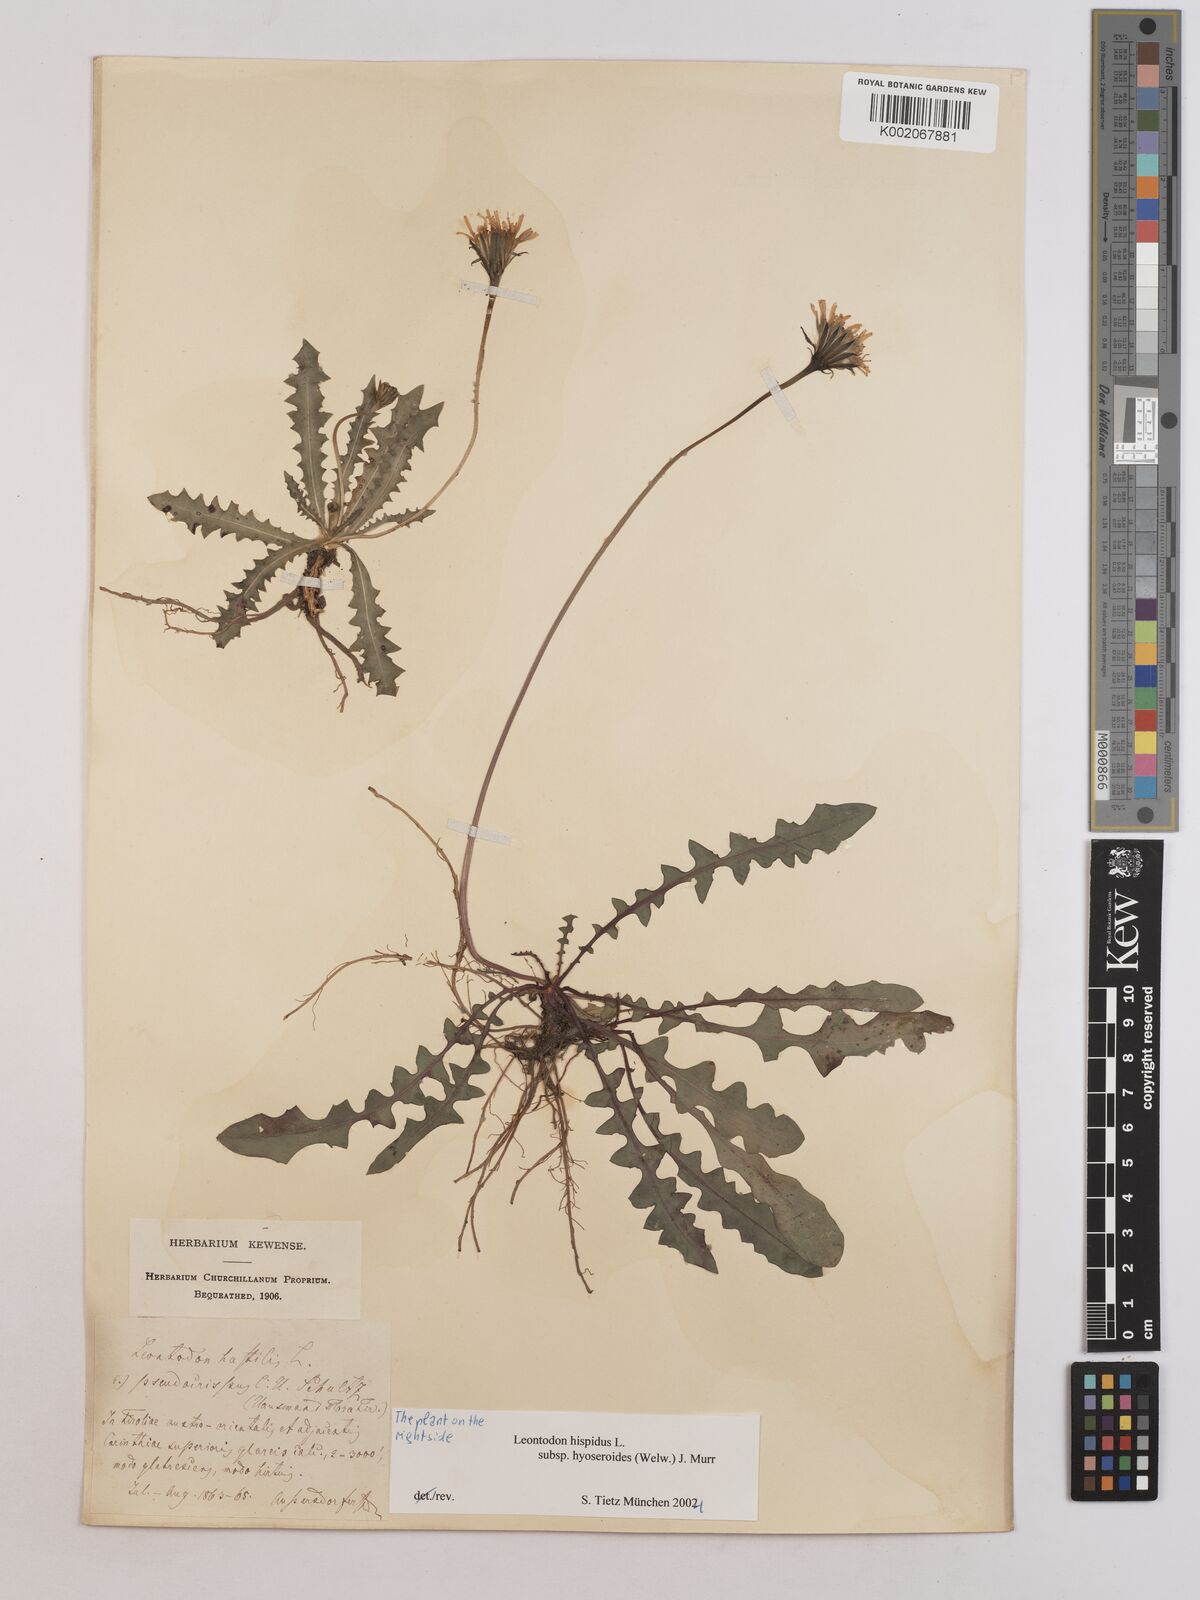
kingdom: Plantae
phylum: Tracheophyta
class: Magnoliopsida
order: Asterales
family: Asteraceae
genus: Leontodon
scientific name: Leontodon hispidus
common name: Rough hawkbit
